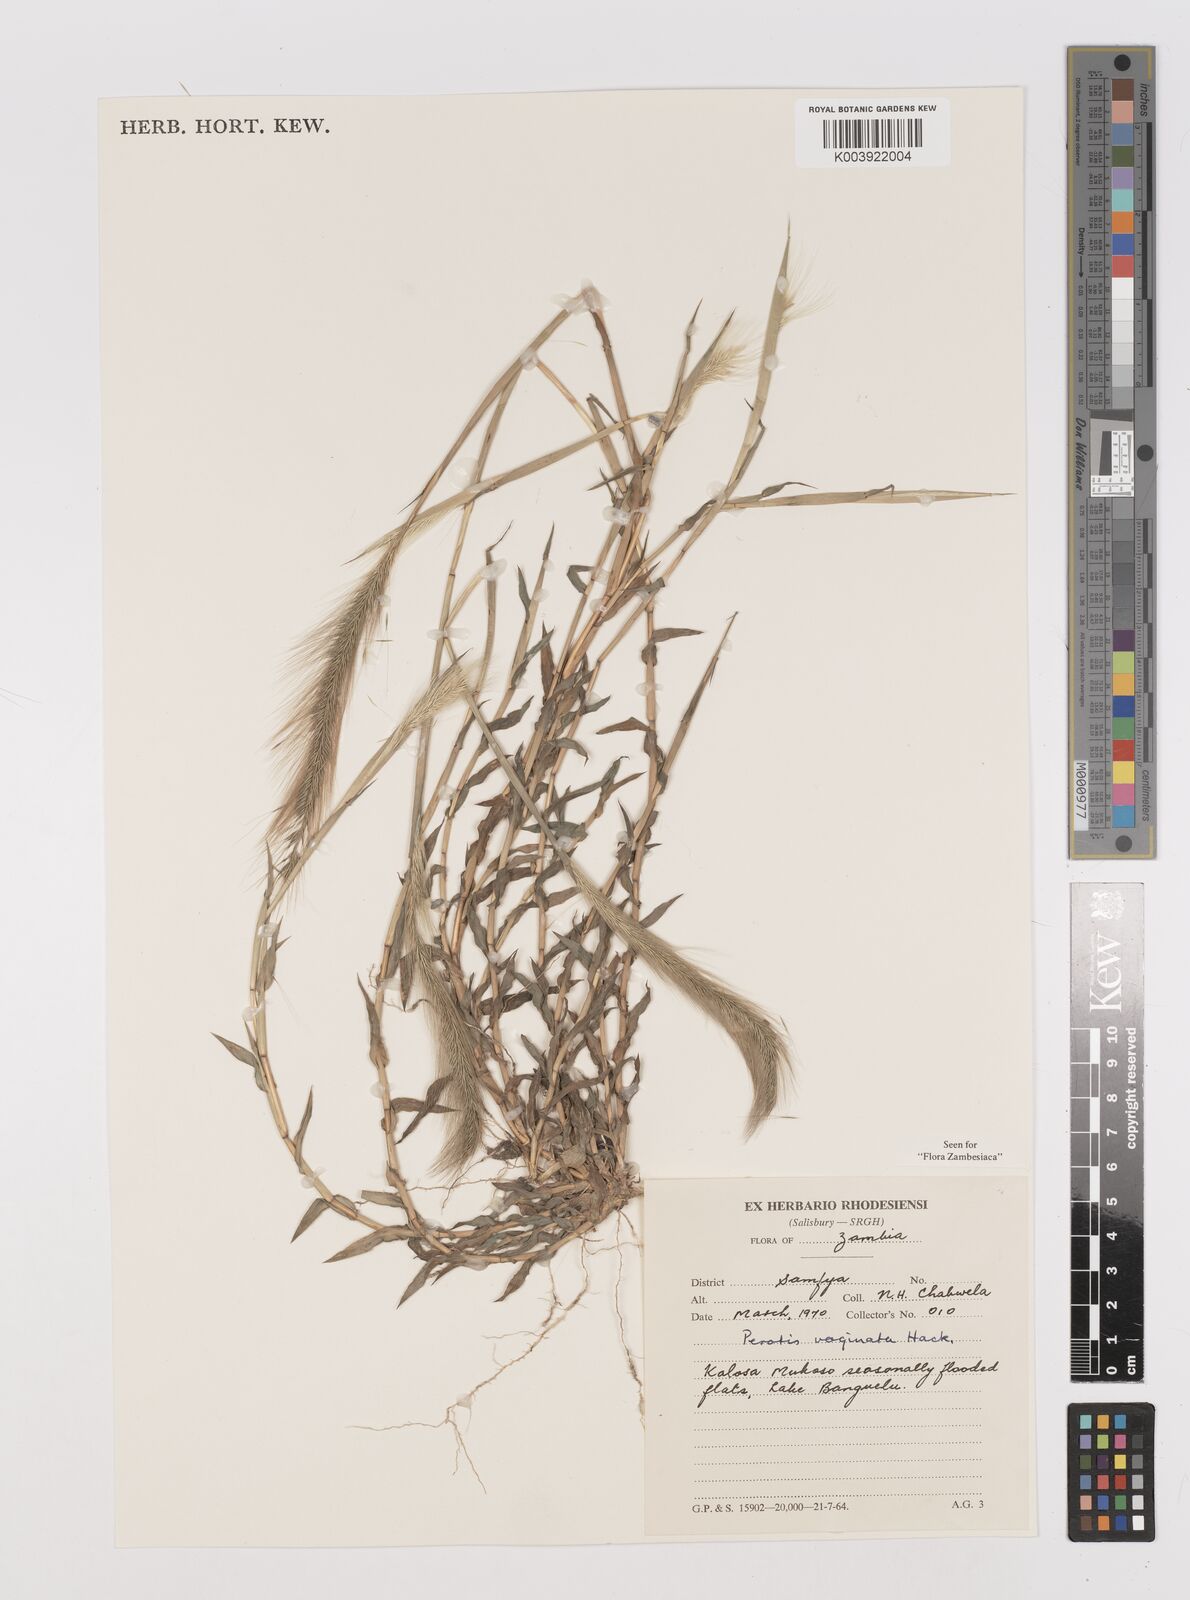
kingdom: Plantae
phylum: Tracheophyta
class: Liliopsida
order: Poales
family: Poaceae
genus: Perotis
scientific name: Perotis vaginata
